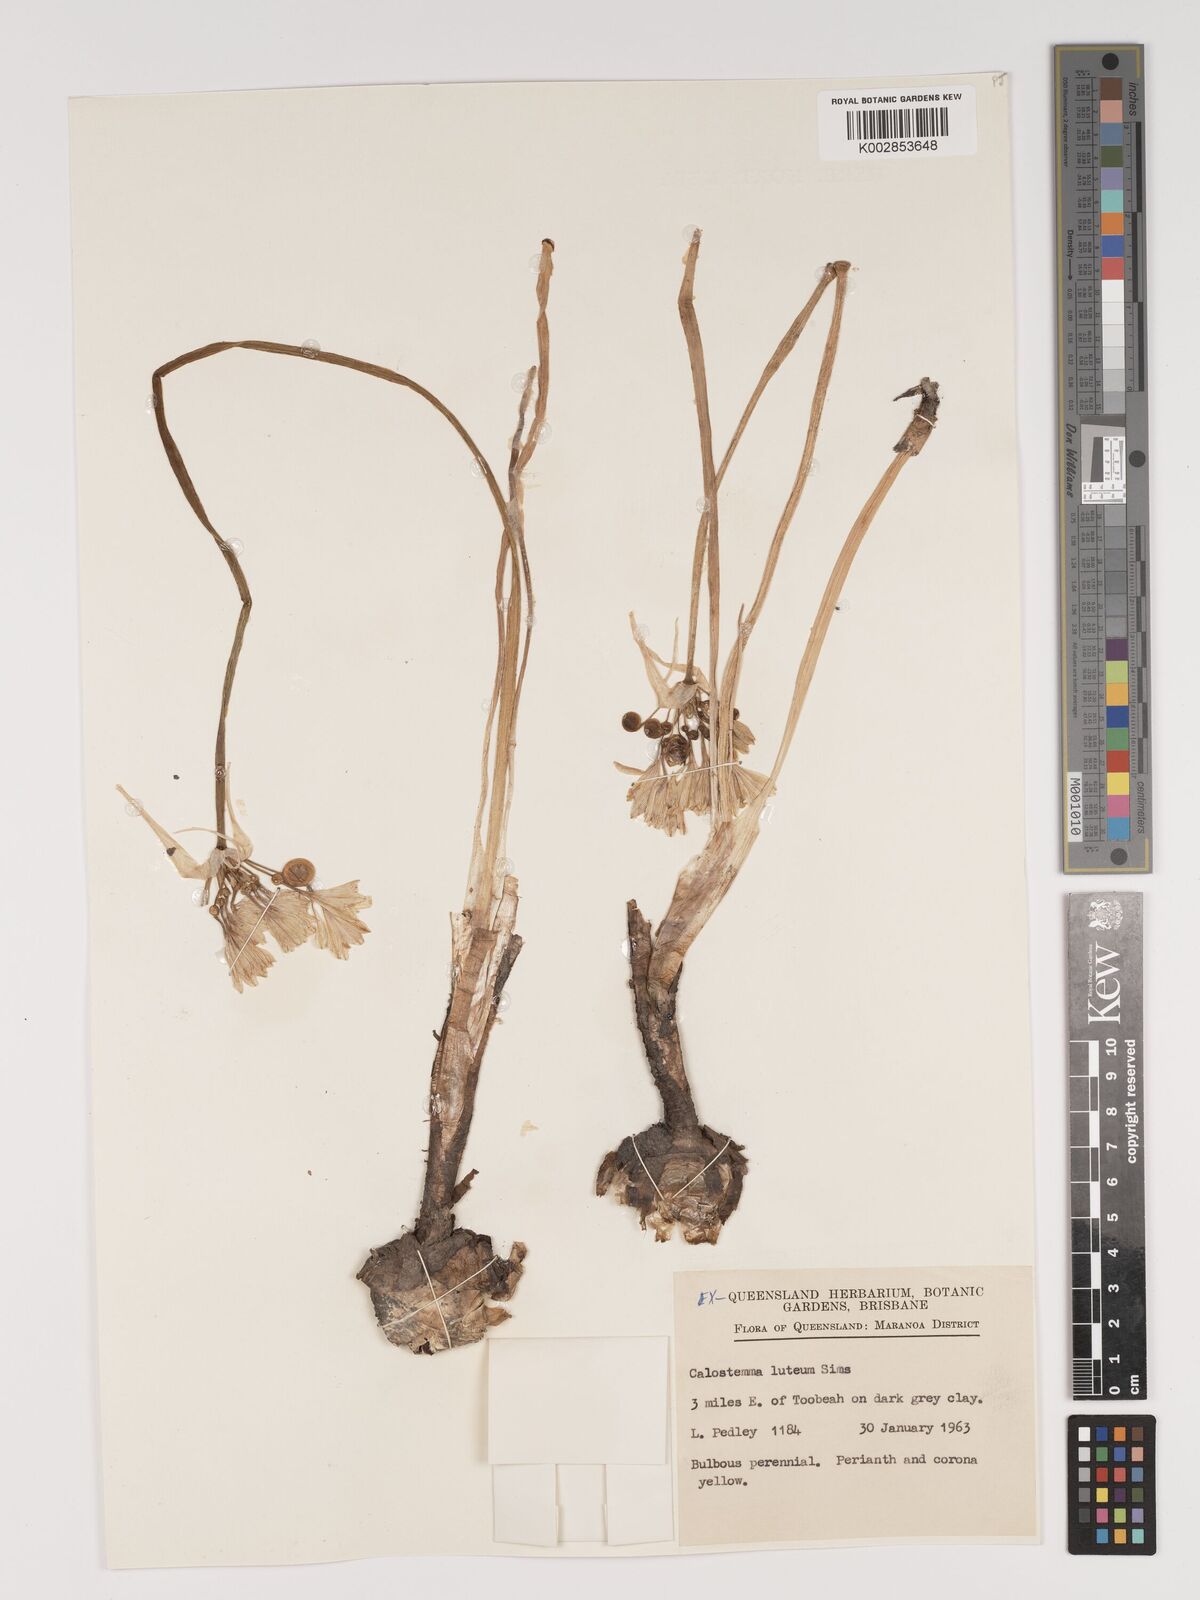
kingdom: Plantae
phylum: Tracheophyta
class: Liliopsida
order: Asparagales
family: Amaryllidaceae
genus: Calostemma
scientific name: Calostemma luteum
